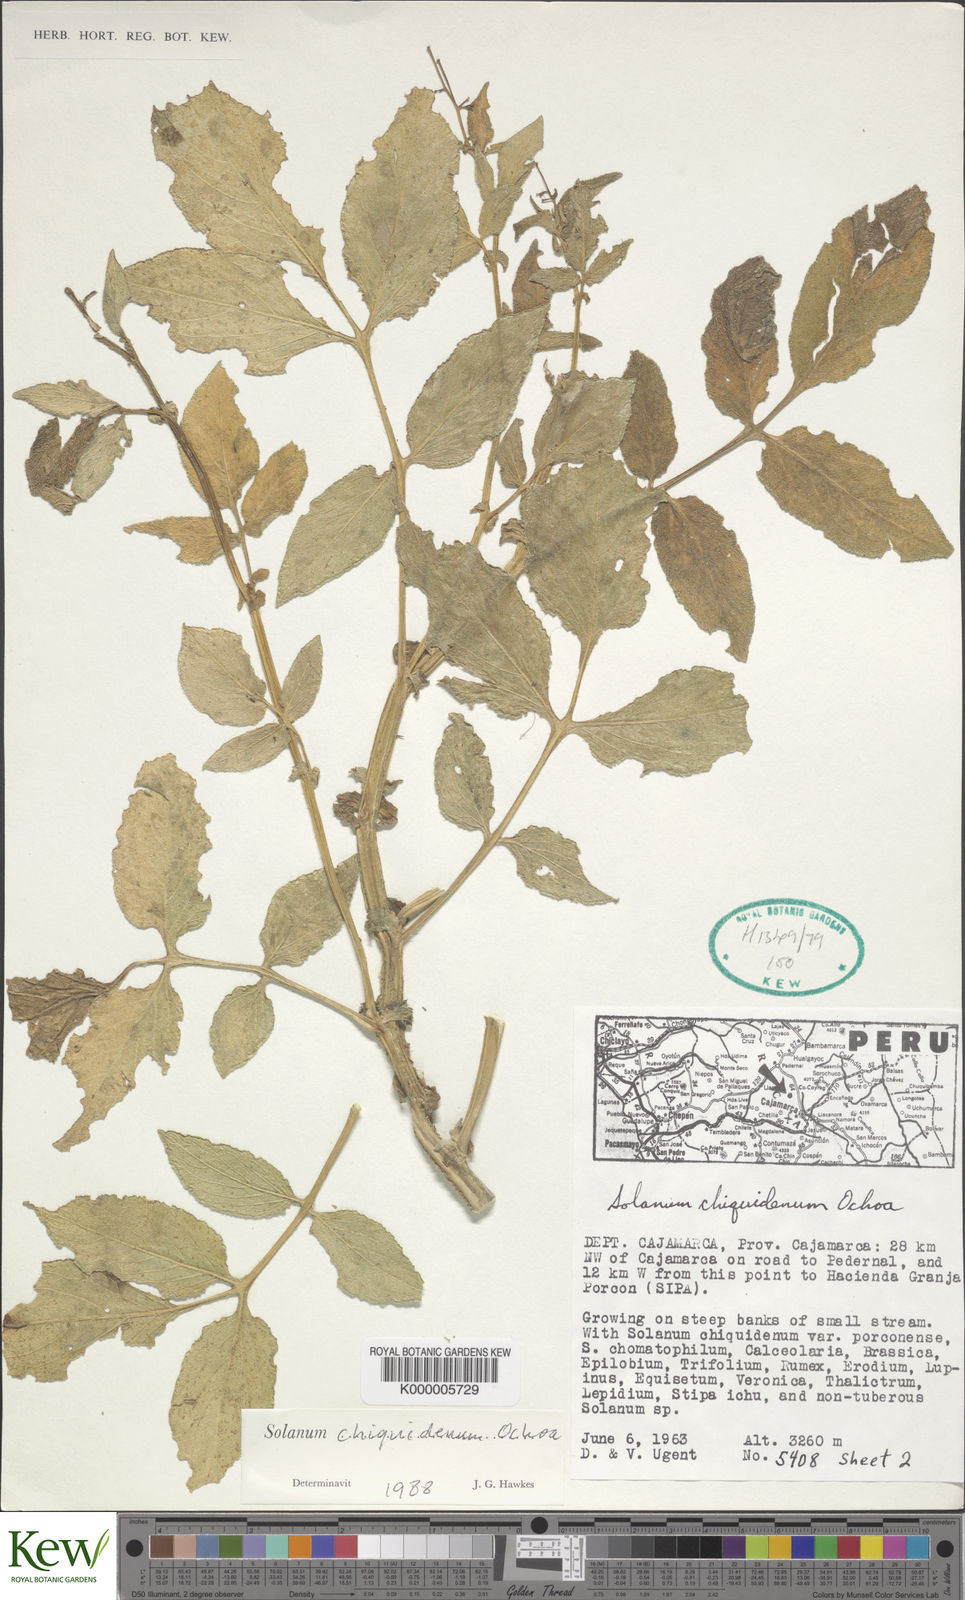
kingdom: Plantae
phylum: Tracheophyta
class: Magnoliopsida
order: Solanales
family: Solanaceae
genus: Solanum
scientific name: Solanum chiquidenum
